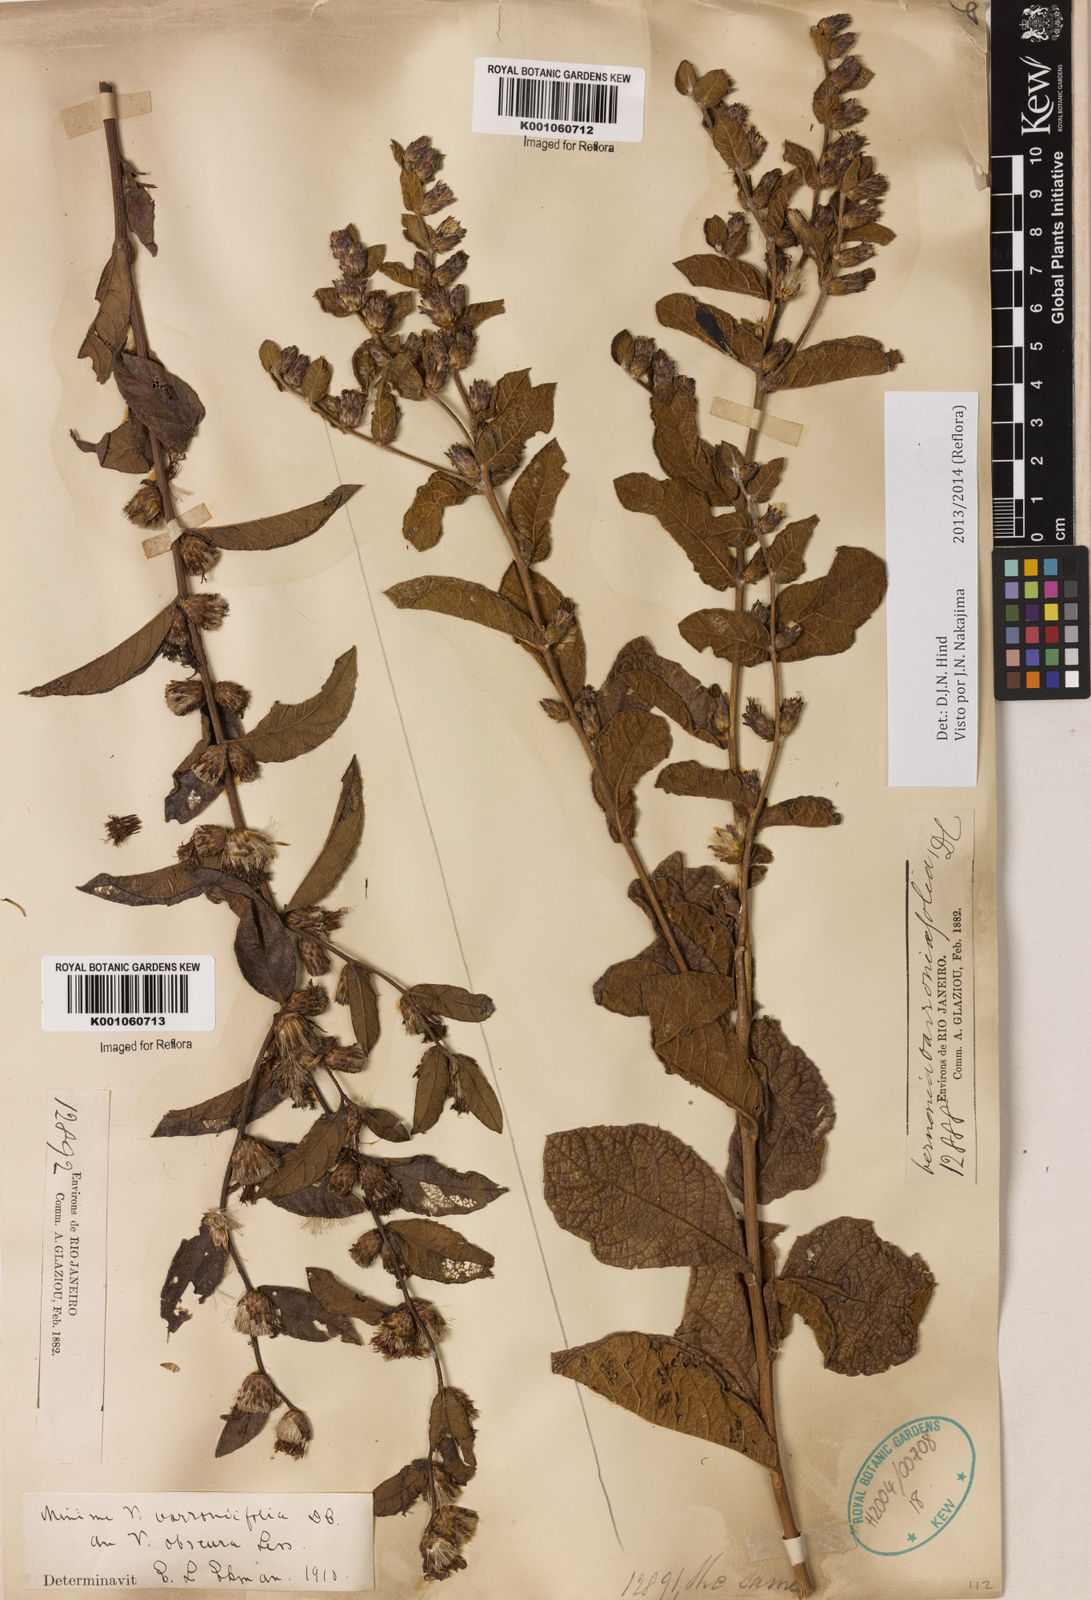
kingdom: Plantae
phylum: Tracheophyta
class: Magnoliopsida
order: Asterales
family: Asteraceae
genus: Lessingianthus
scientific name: Lessingianthus varroniifolius
